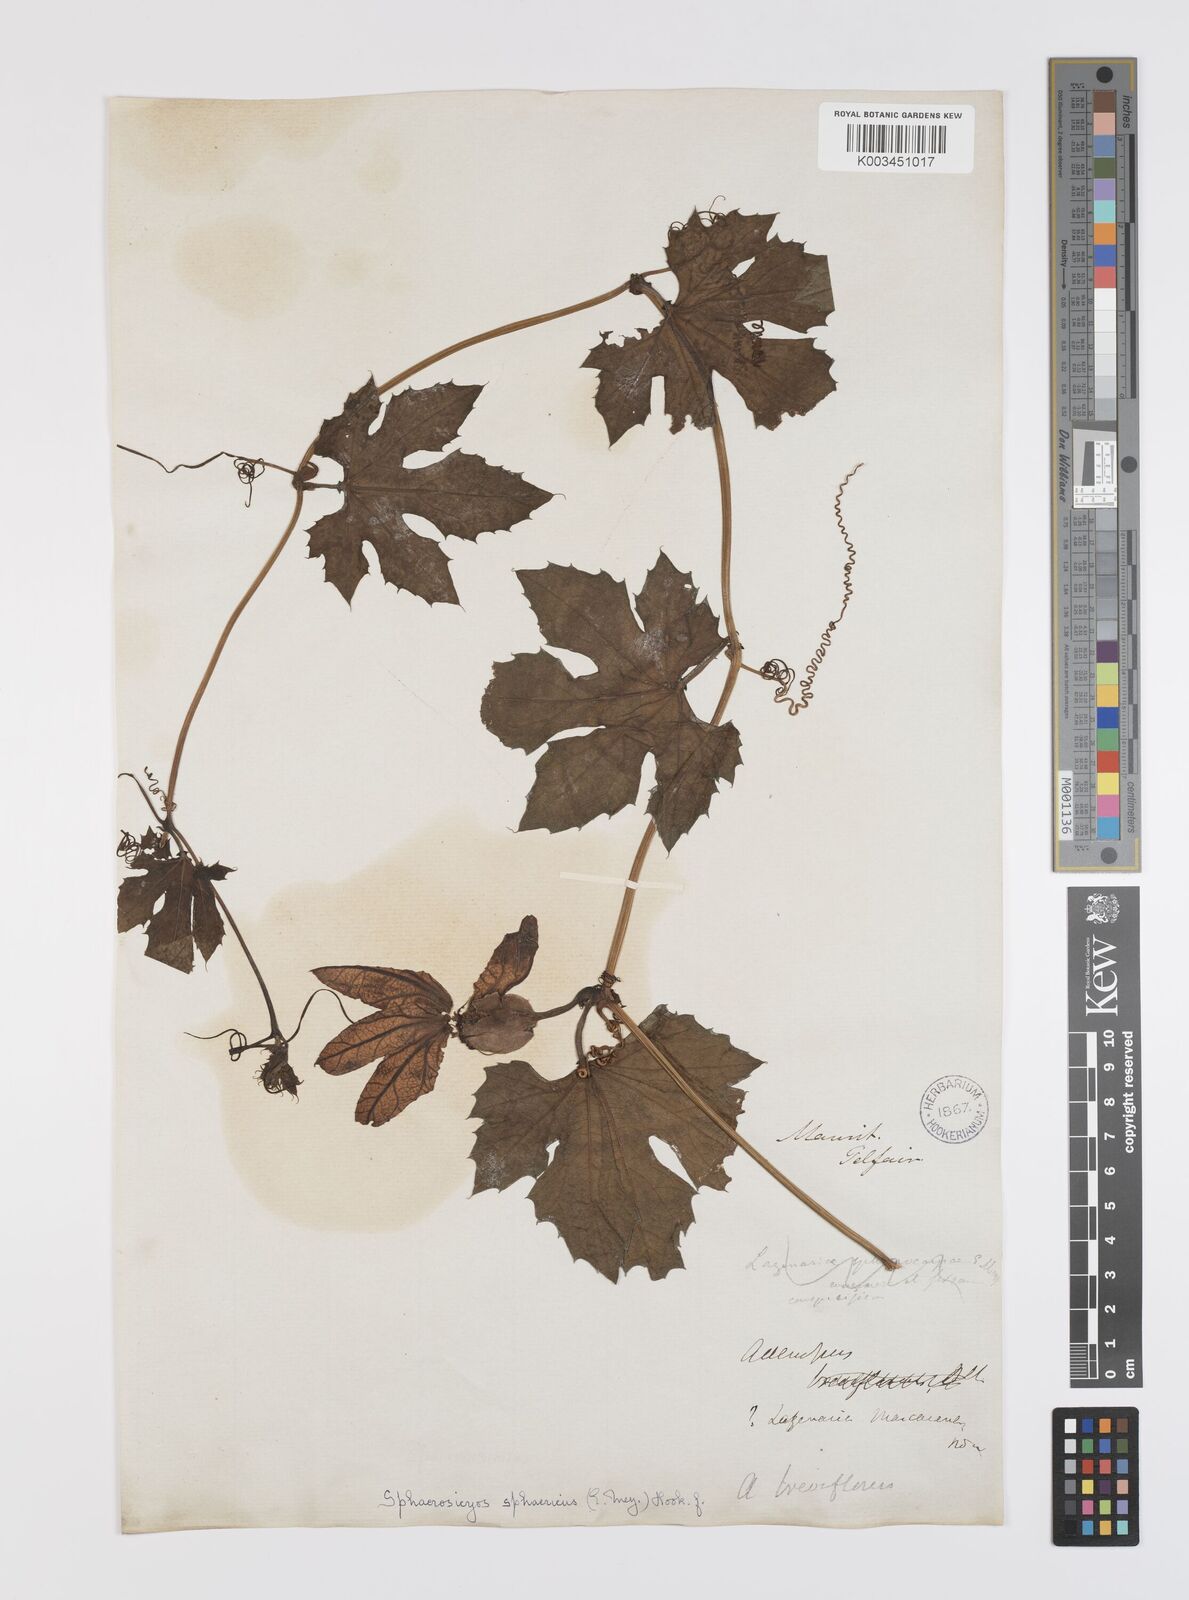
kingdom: Plantae
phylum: Tracheophyta
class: Magnoliopsida
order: Cucurbitales
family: Cucurbitaceae
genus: Lagenaria
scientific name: Lagenaria sphaerica
